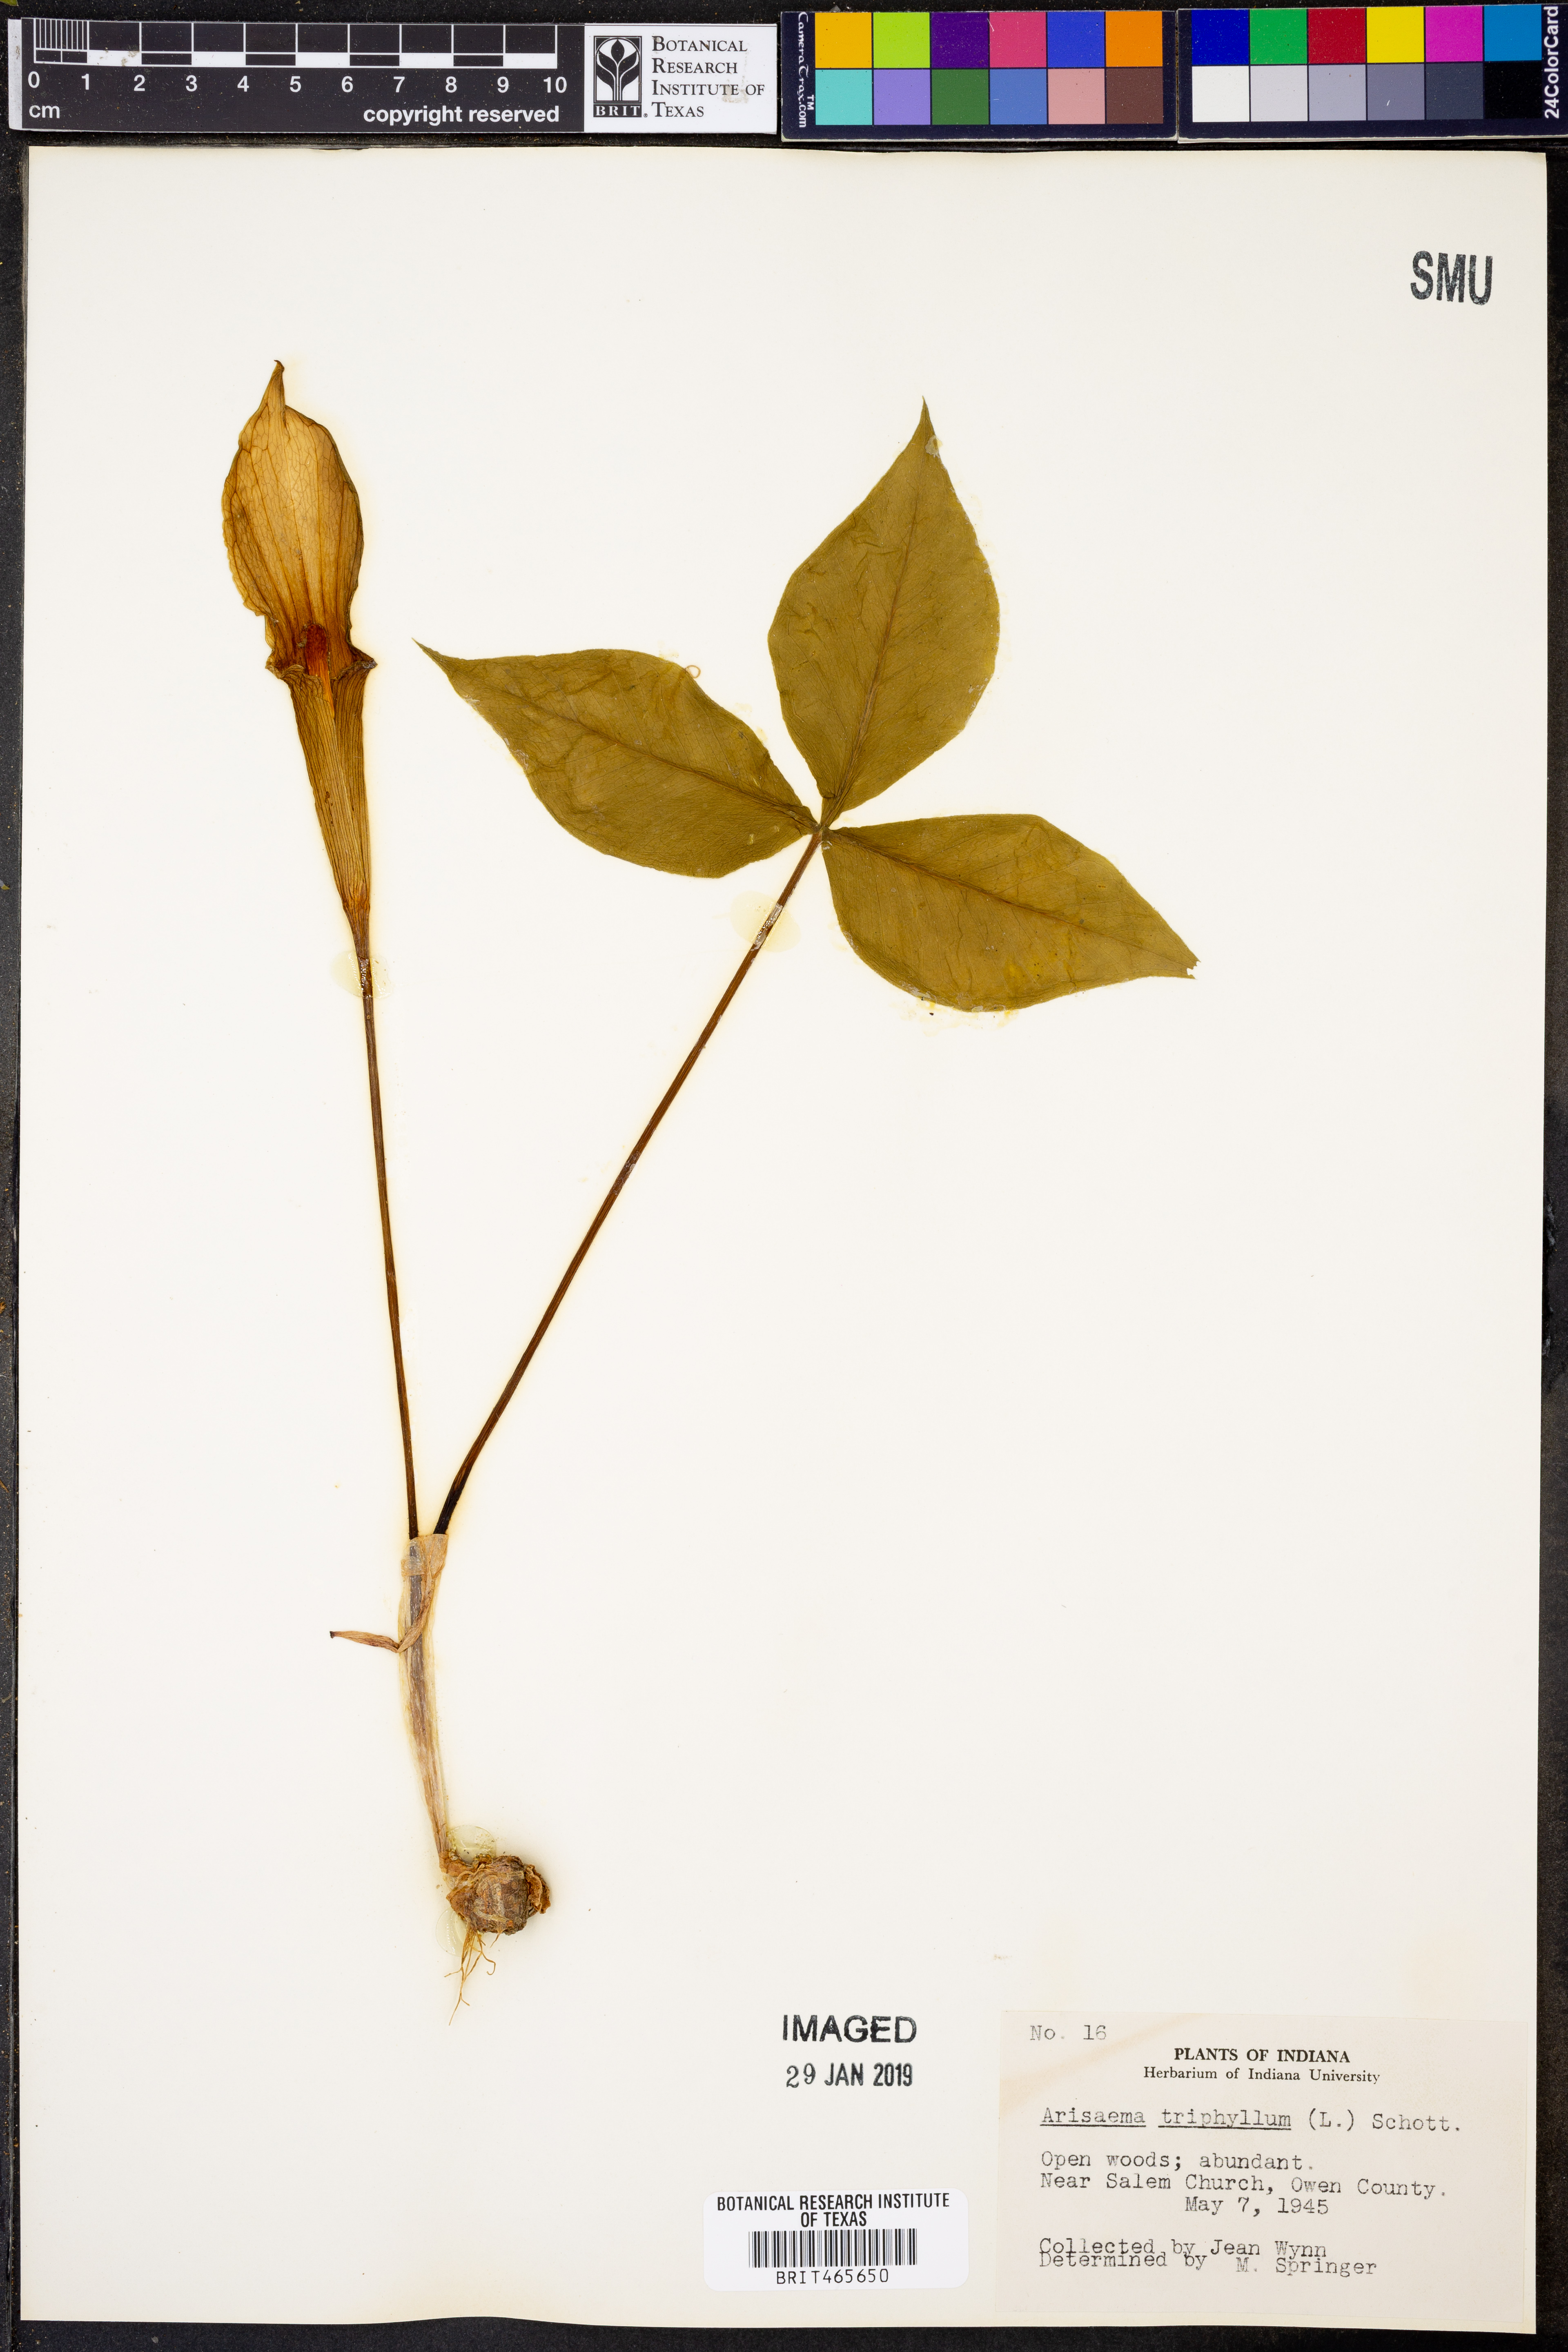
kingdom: Plantae
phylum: Tracheophyta
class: Liliopsida
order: Alismatales
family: Araceae
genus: Arisaema
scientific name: Arisaema triphyllum
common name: Jack-in-the-pulpit
